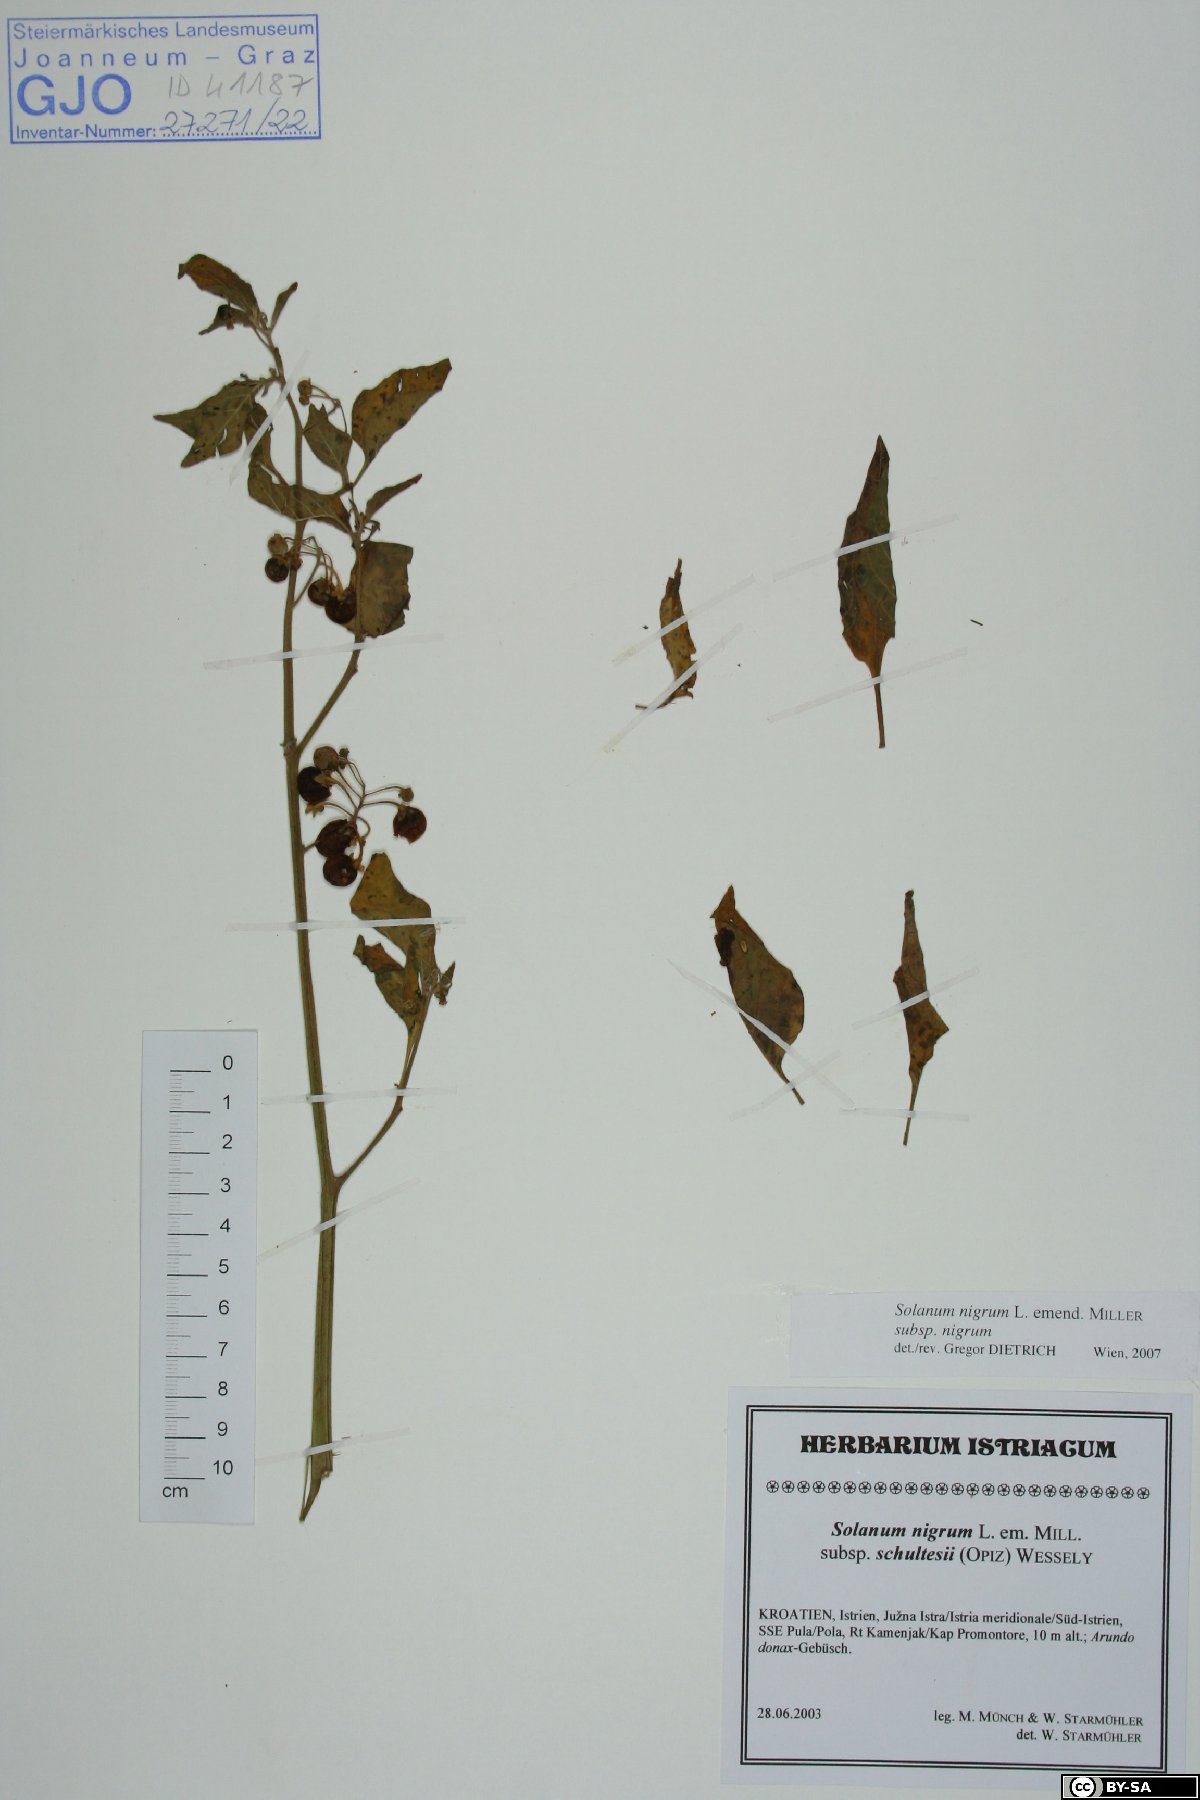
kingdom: Plantae
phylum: Tracheophyta
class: Magnoliopsida
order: Solanales
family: Solanaceae
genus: Solanum
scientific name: Solanum nigrum
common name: Black nightshade
